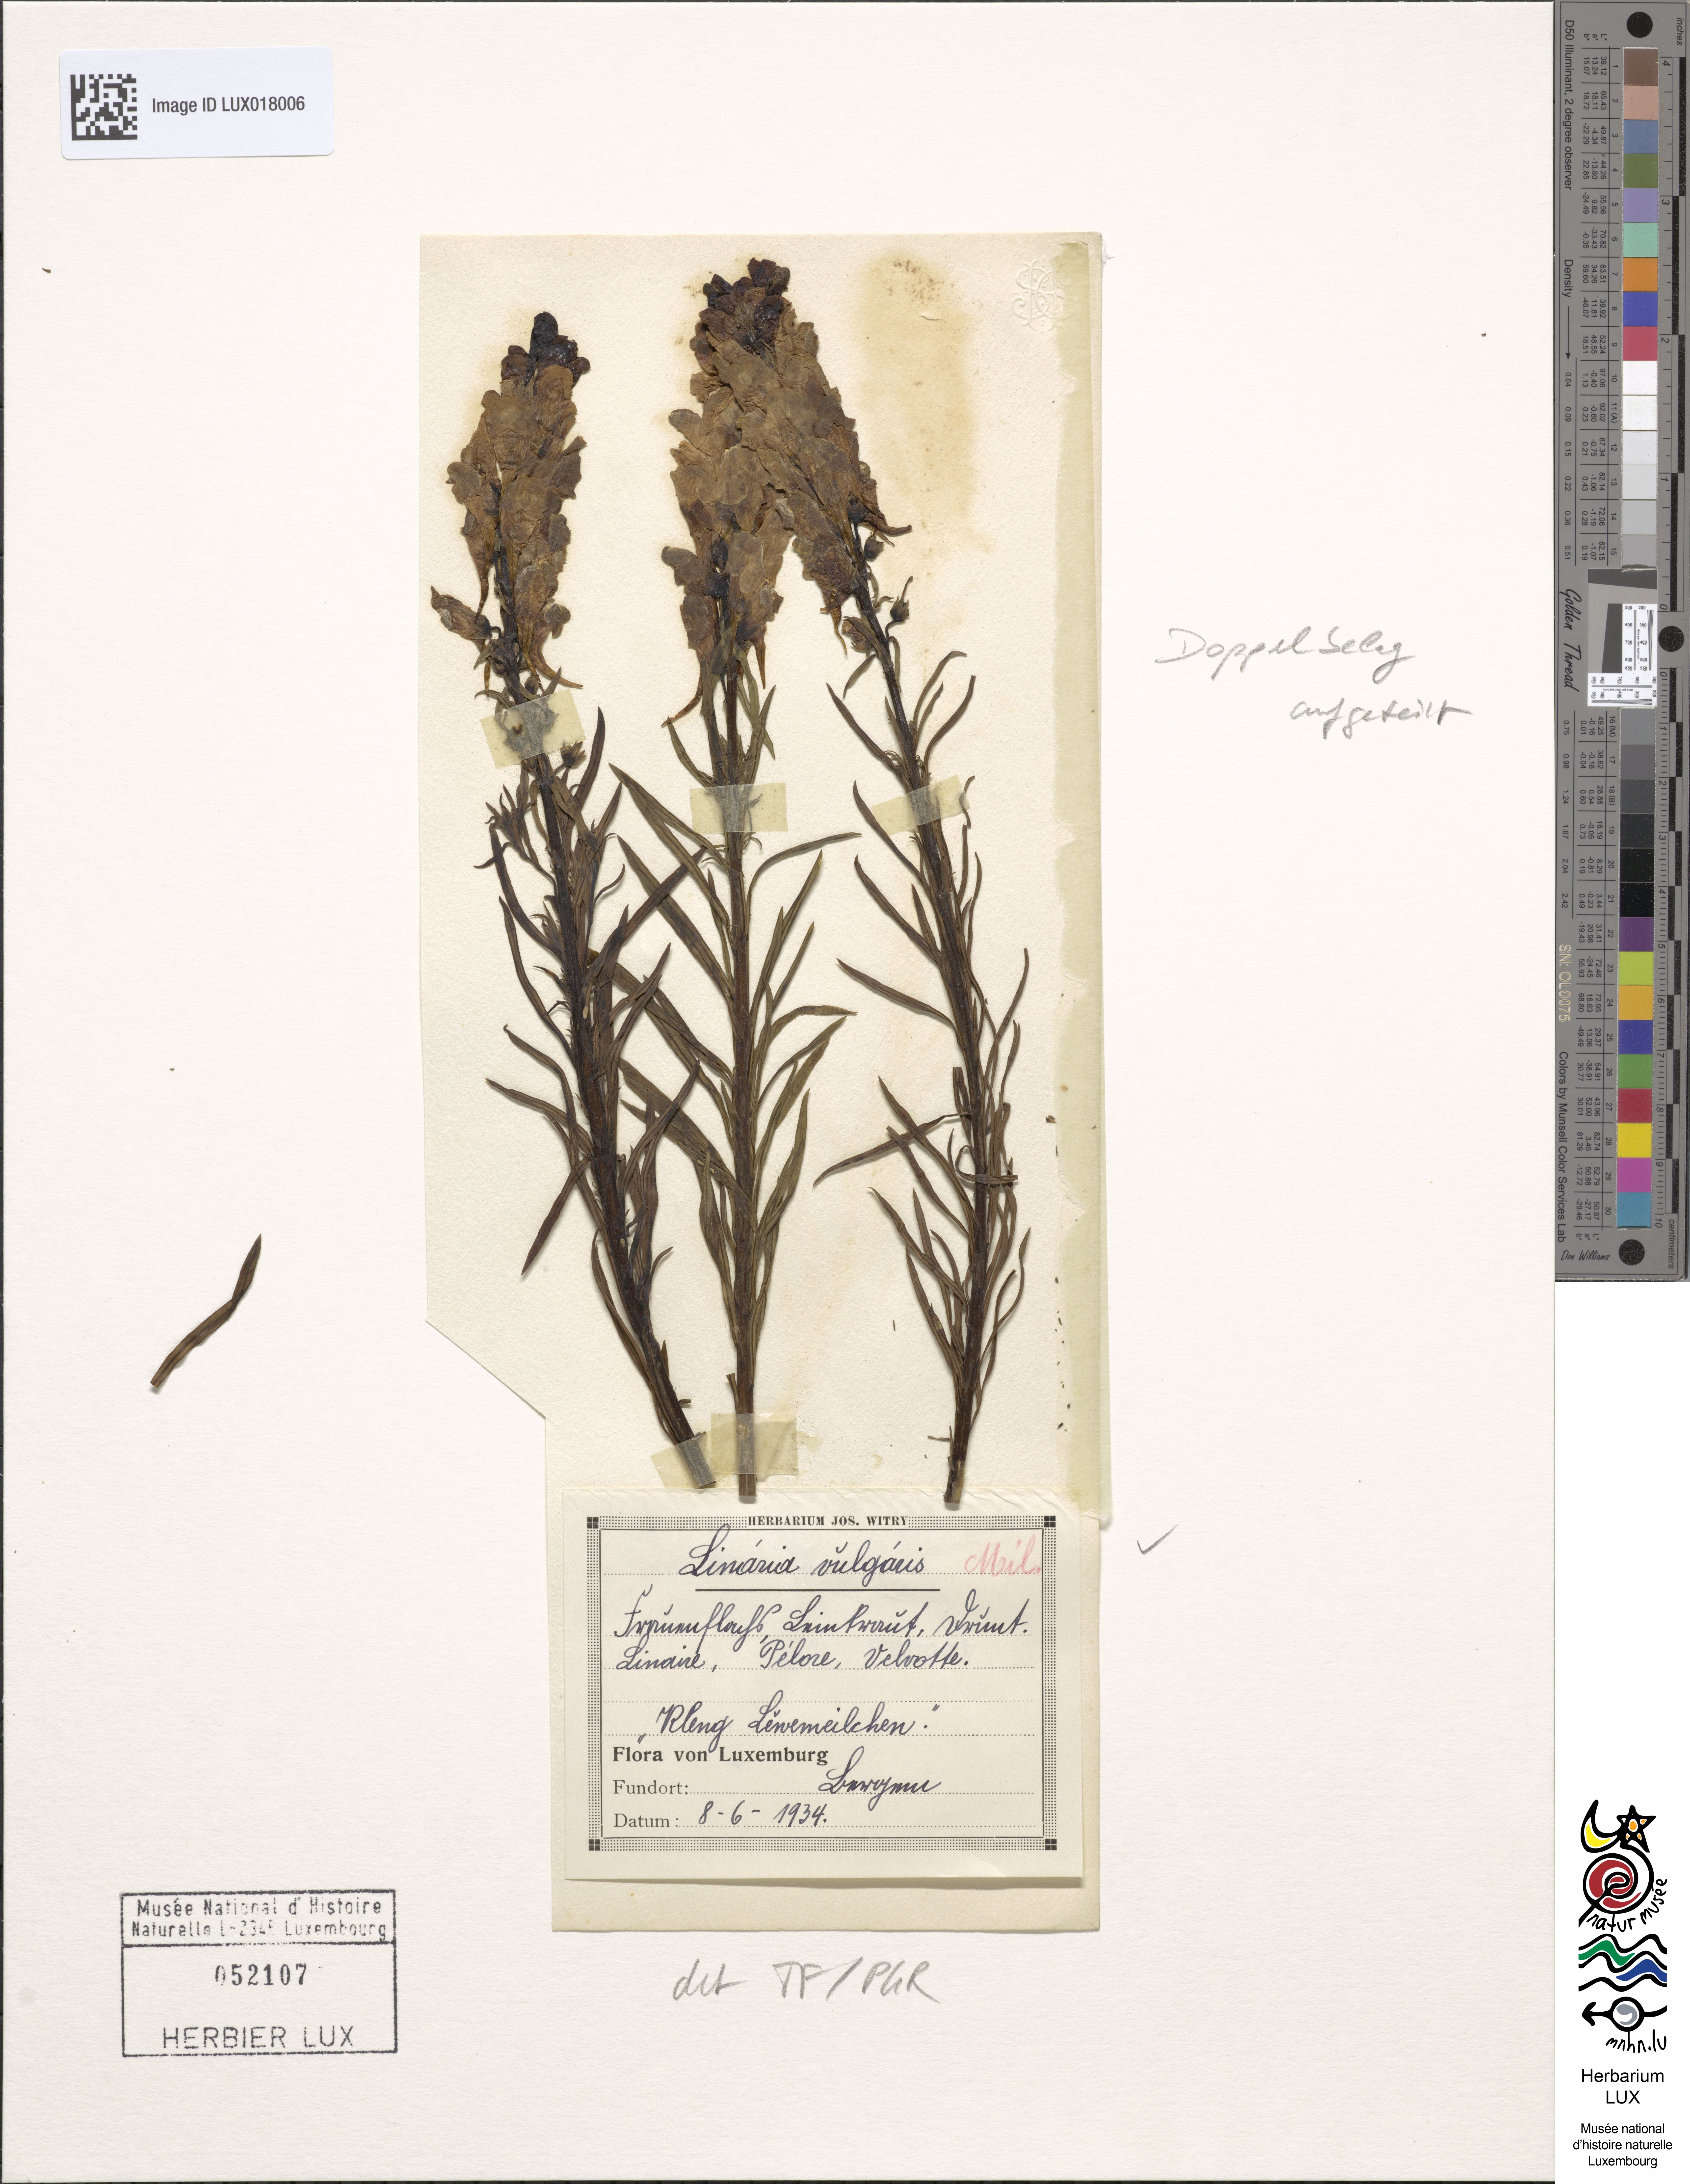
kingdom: Plantae
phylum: Tracheophyta
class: Magnoliopsida
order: Lamiales
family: Plantaginaceae
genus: Linaria
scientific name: Linaria vulgaris
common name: Butter and eggs
